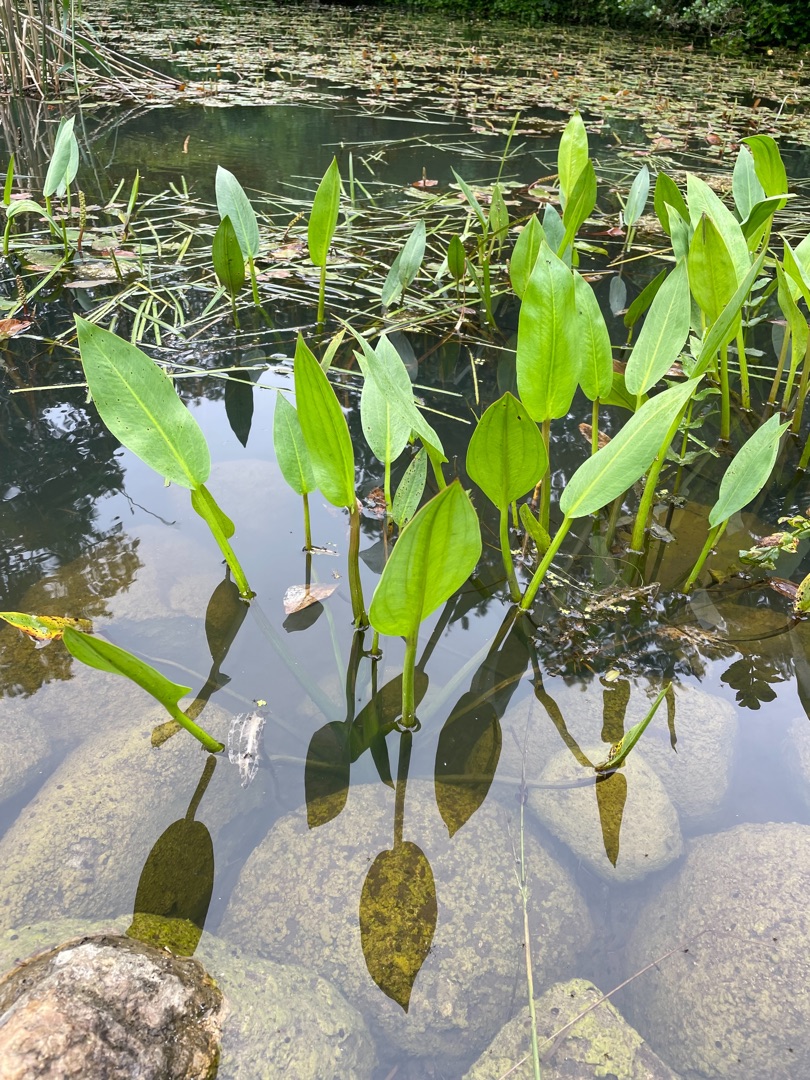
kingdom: Plantae
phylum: Tracheophyta
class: Liliopsida
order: Alismatales
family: Alismataceae
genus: Alisma
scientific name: Alisma plantago-aquatica
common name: Vejbred-skeblad
